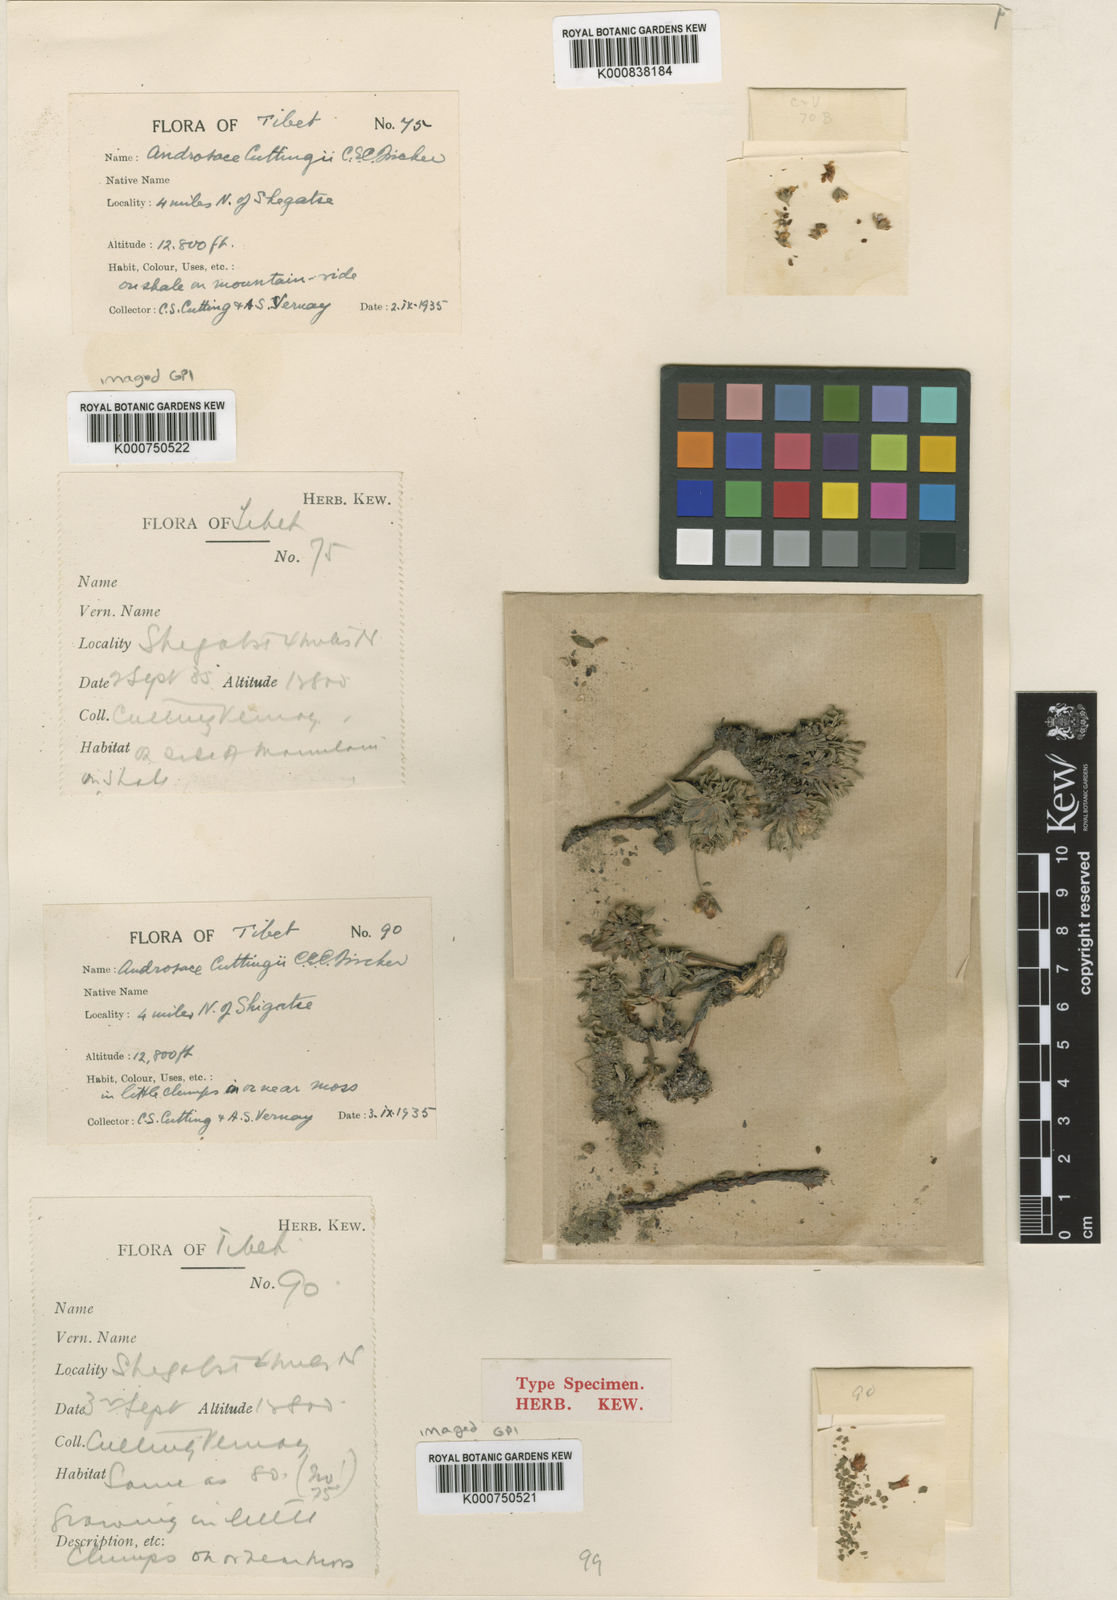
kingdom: Plantae
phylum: Tracheophyta
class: Magnoliopsida
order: Ericales
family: Primulaceae
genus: Androsace
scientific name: Androsace cuttingii
